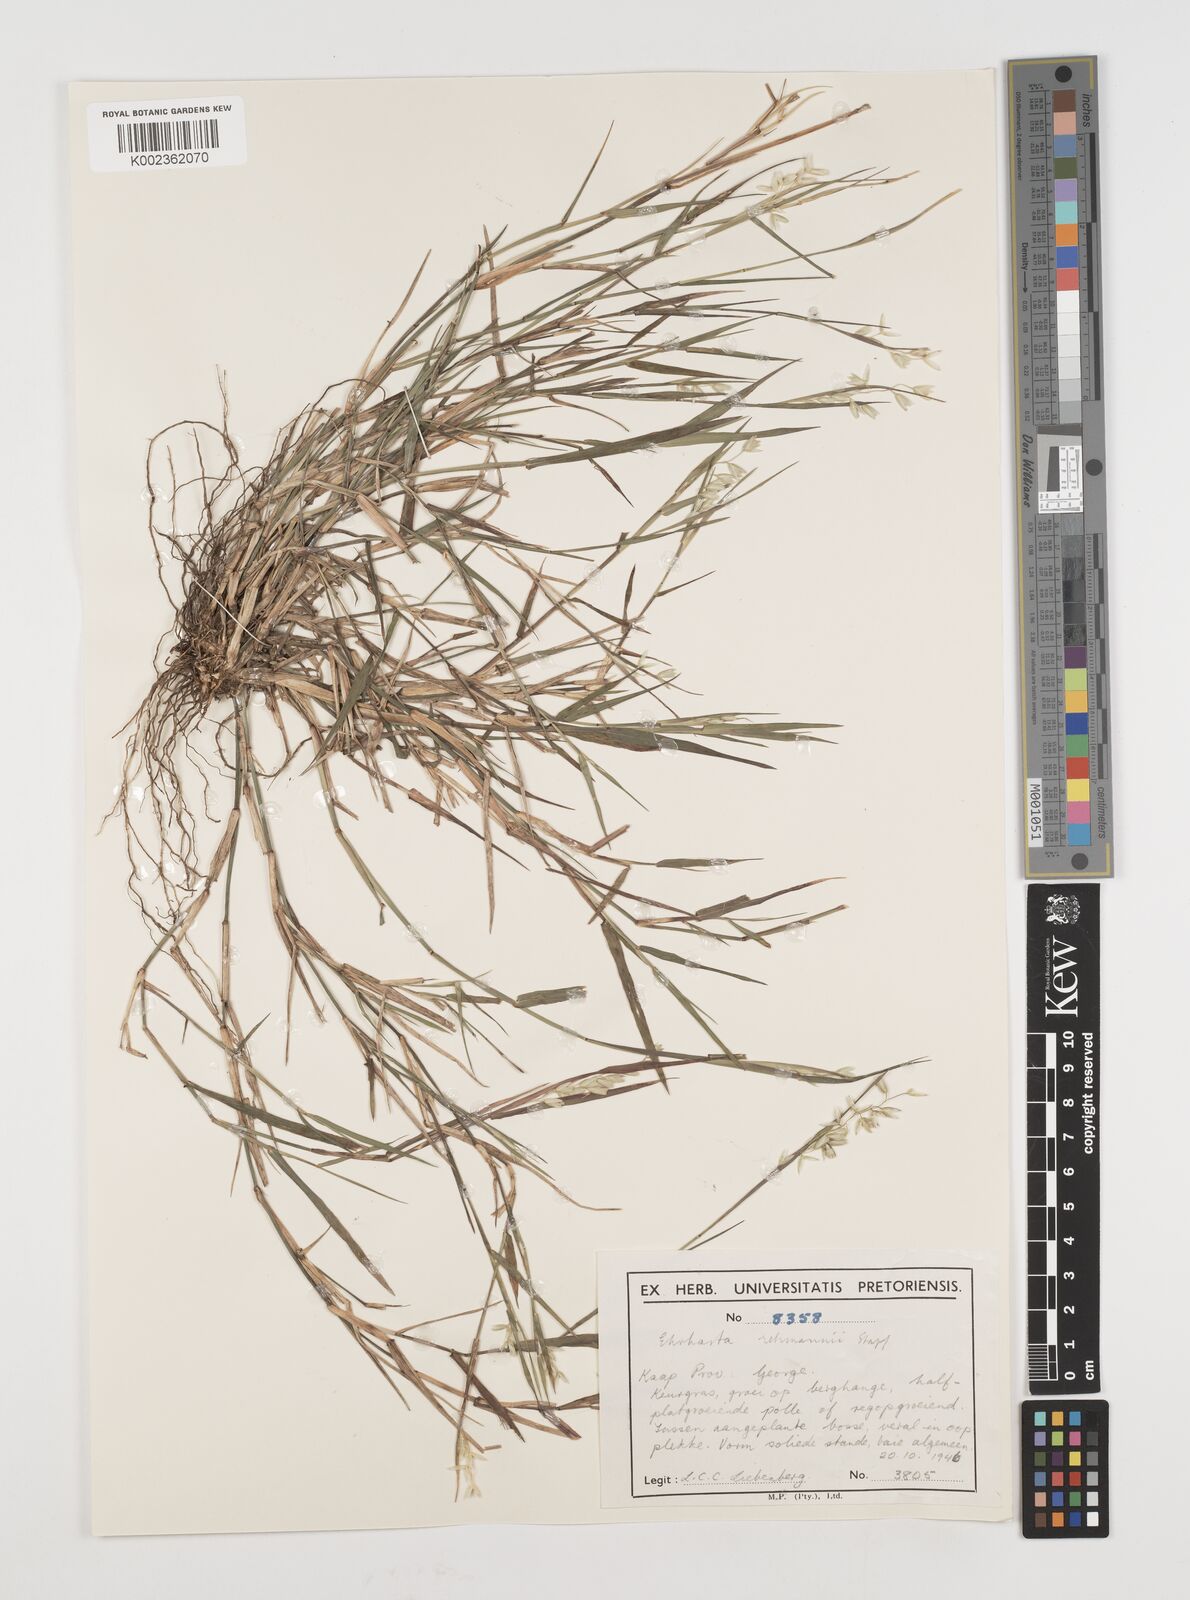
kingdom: Plantae
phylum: Tracheophyta
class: Liliopsida
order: Poales
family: Poaceae
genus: Ehrharta
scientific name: Ehrharta rehmannii
